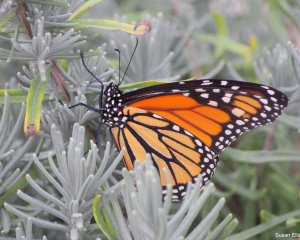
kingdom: Animalia
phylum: Arthropoda
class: Insecta
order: Lepidoptera
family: Nymphalidae
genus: Danaus
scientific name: Danaus plexippus
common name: Monarch
